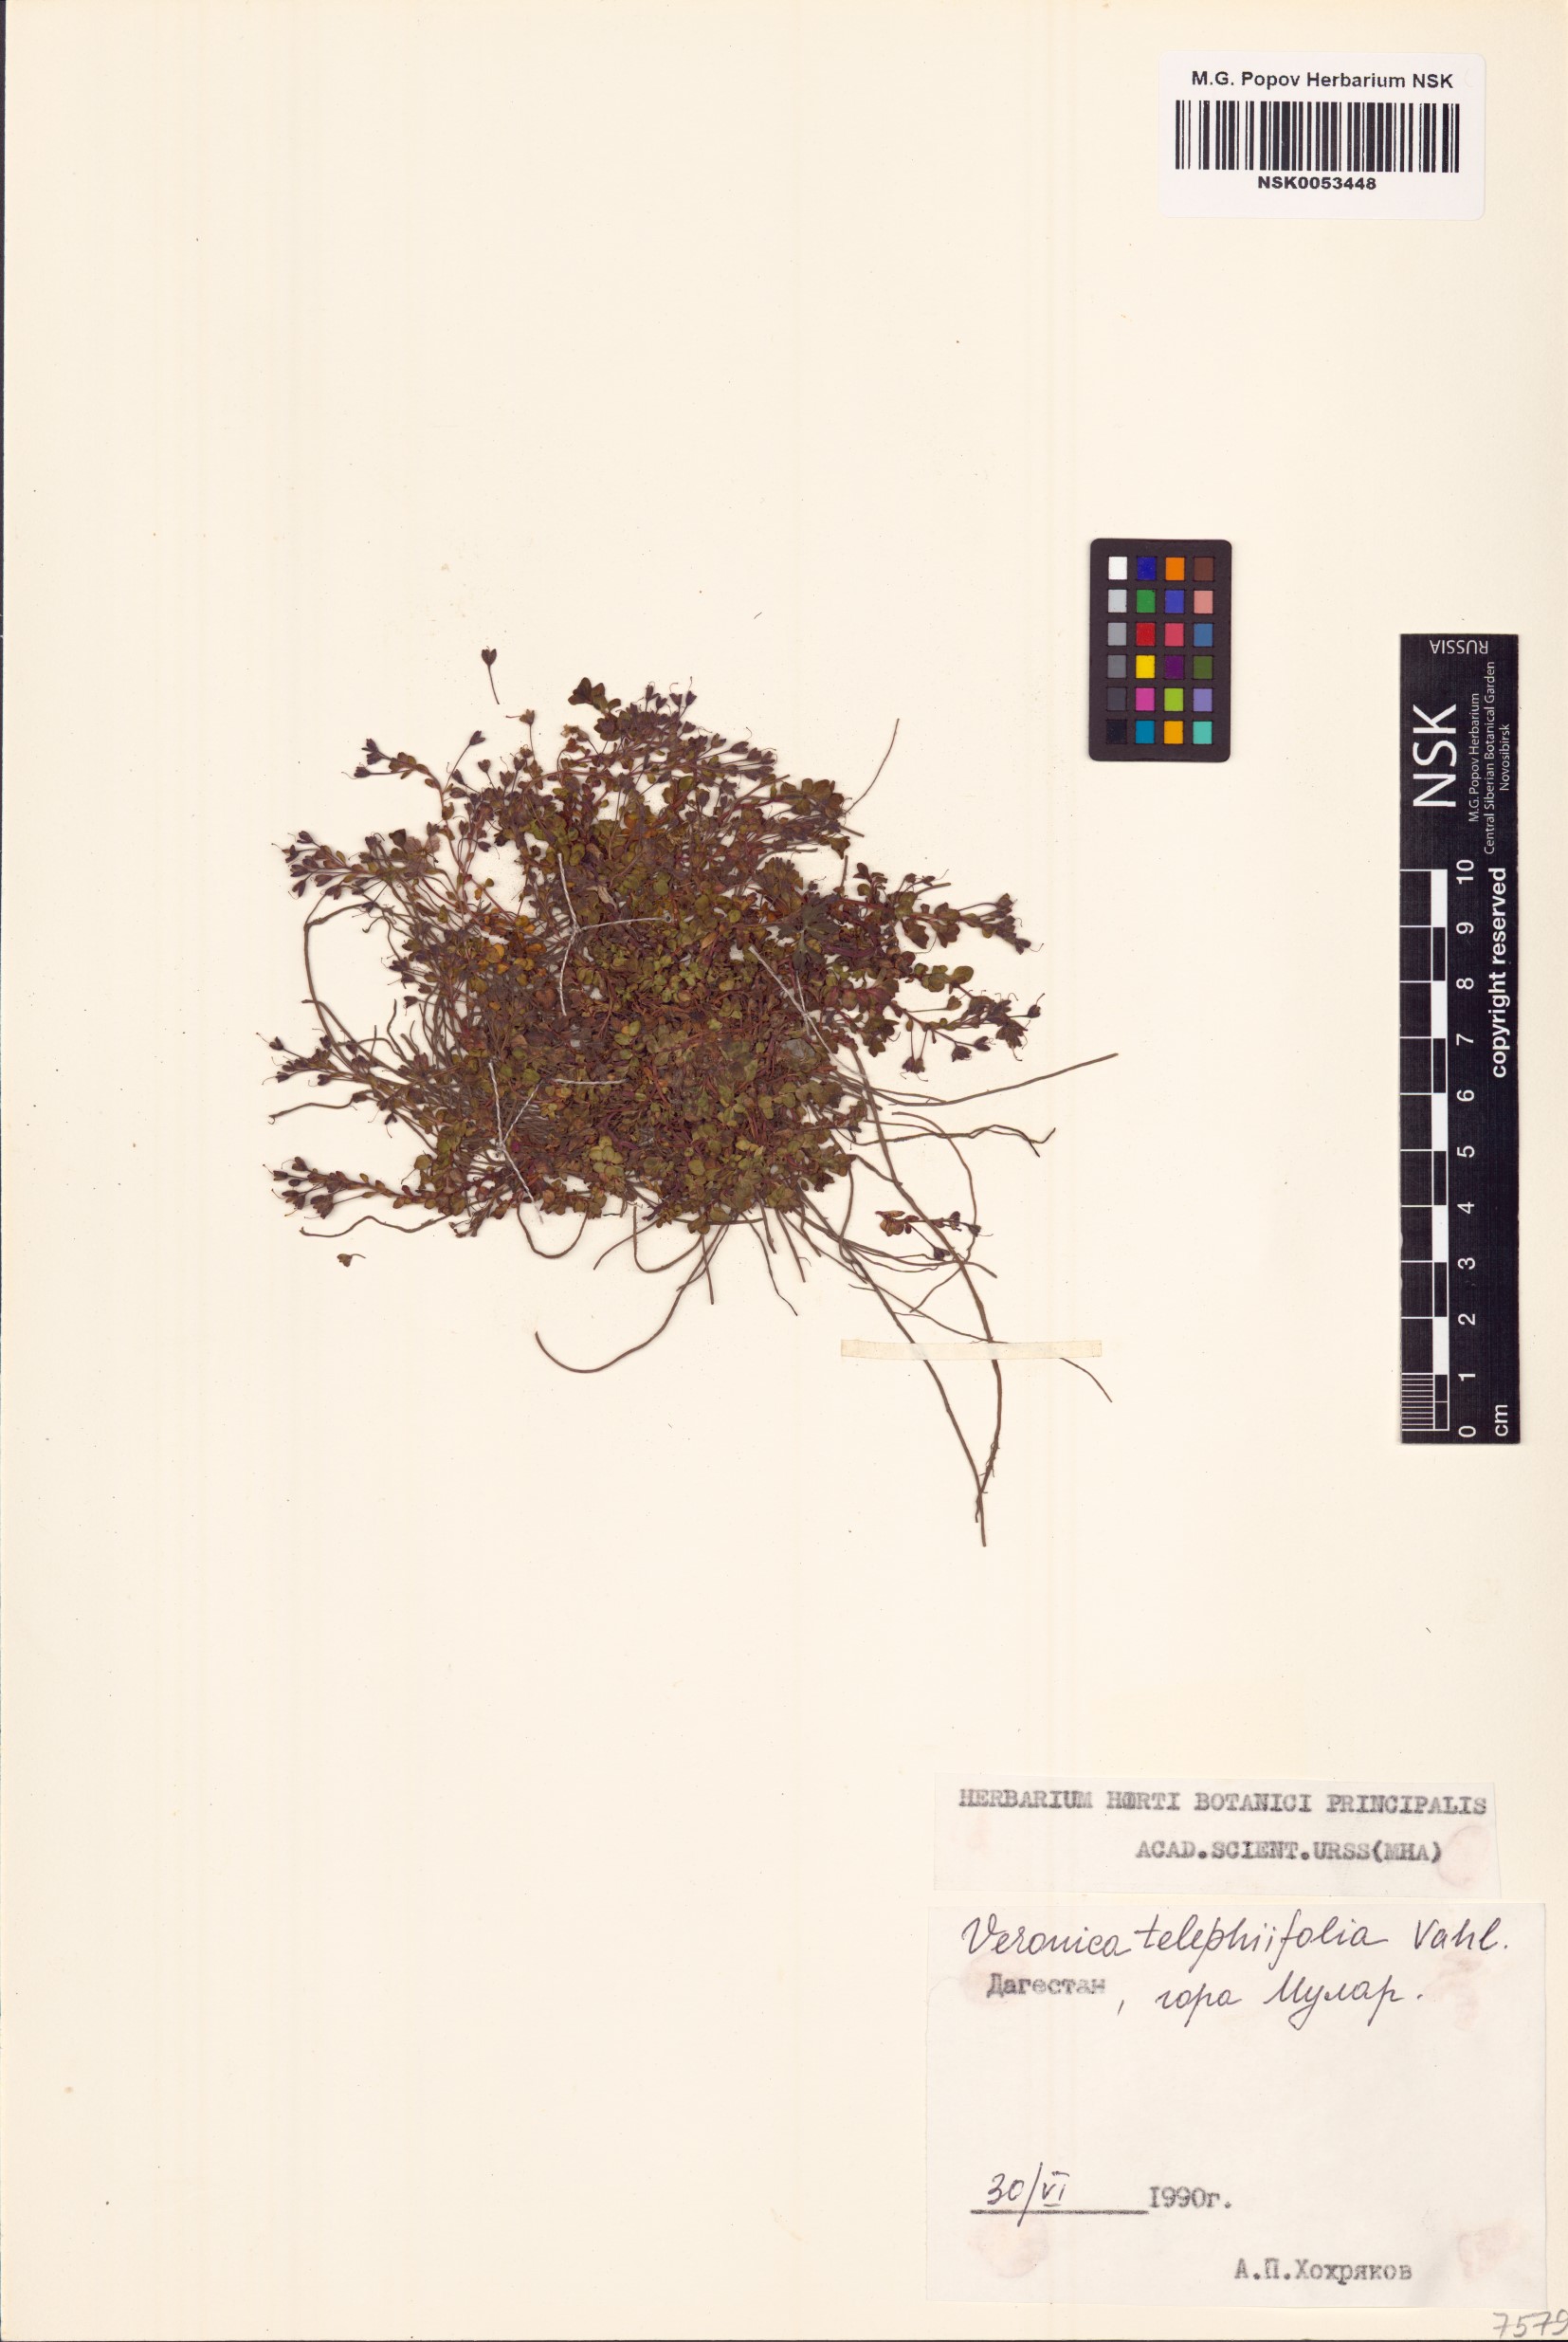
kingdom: Plantae
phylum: Tracheophyta
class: Magnoliopsida
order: Lamiales
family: Plantaginaceae
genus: Veronica
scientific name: Veronica telephiifolia
